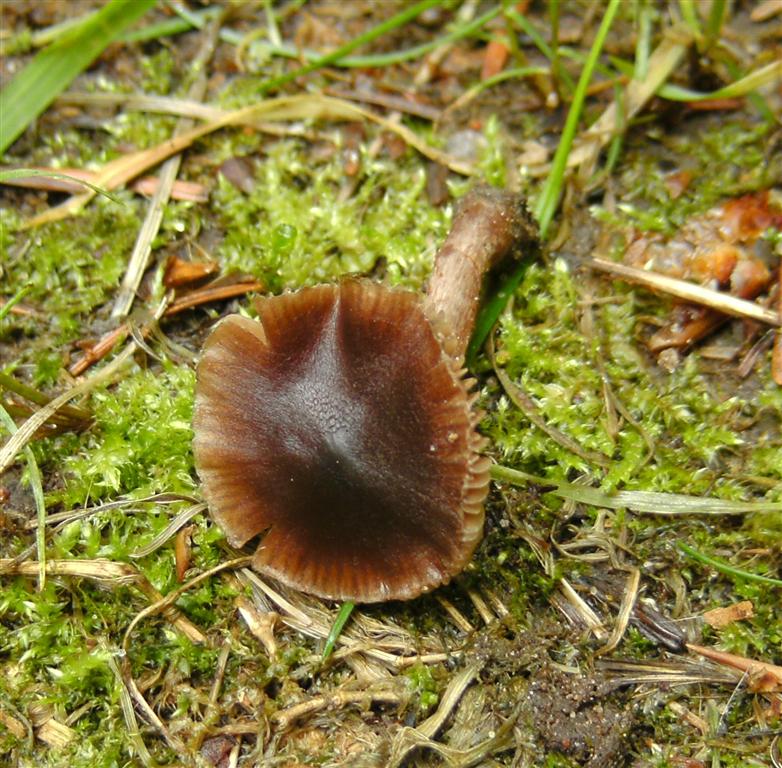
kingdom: Fungi
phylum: Basidiomycota
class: Agaricomycetes
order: Agaricales
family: Cortinariaceae
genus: Cortinarius
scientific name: Cortinarius vernus
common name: sommer-slørhat
